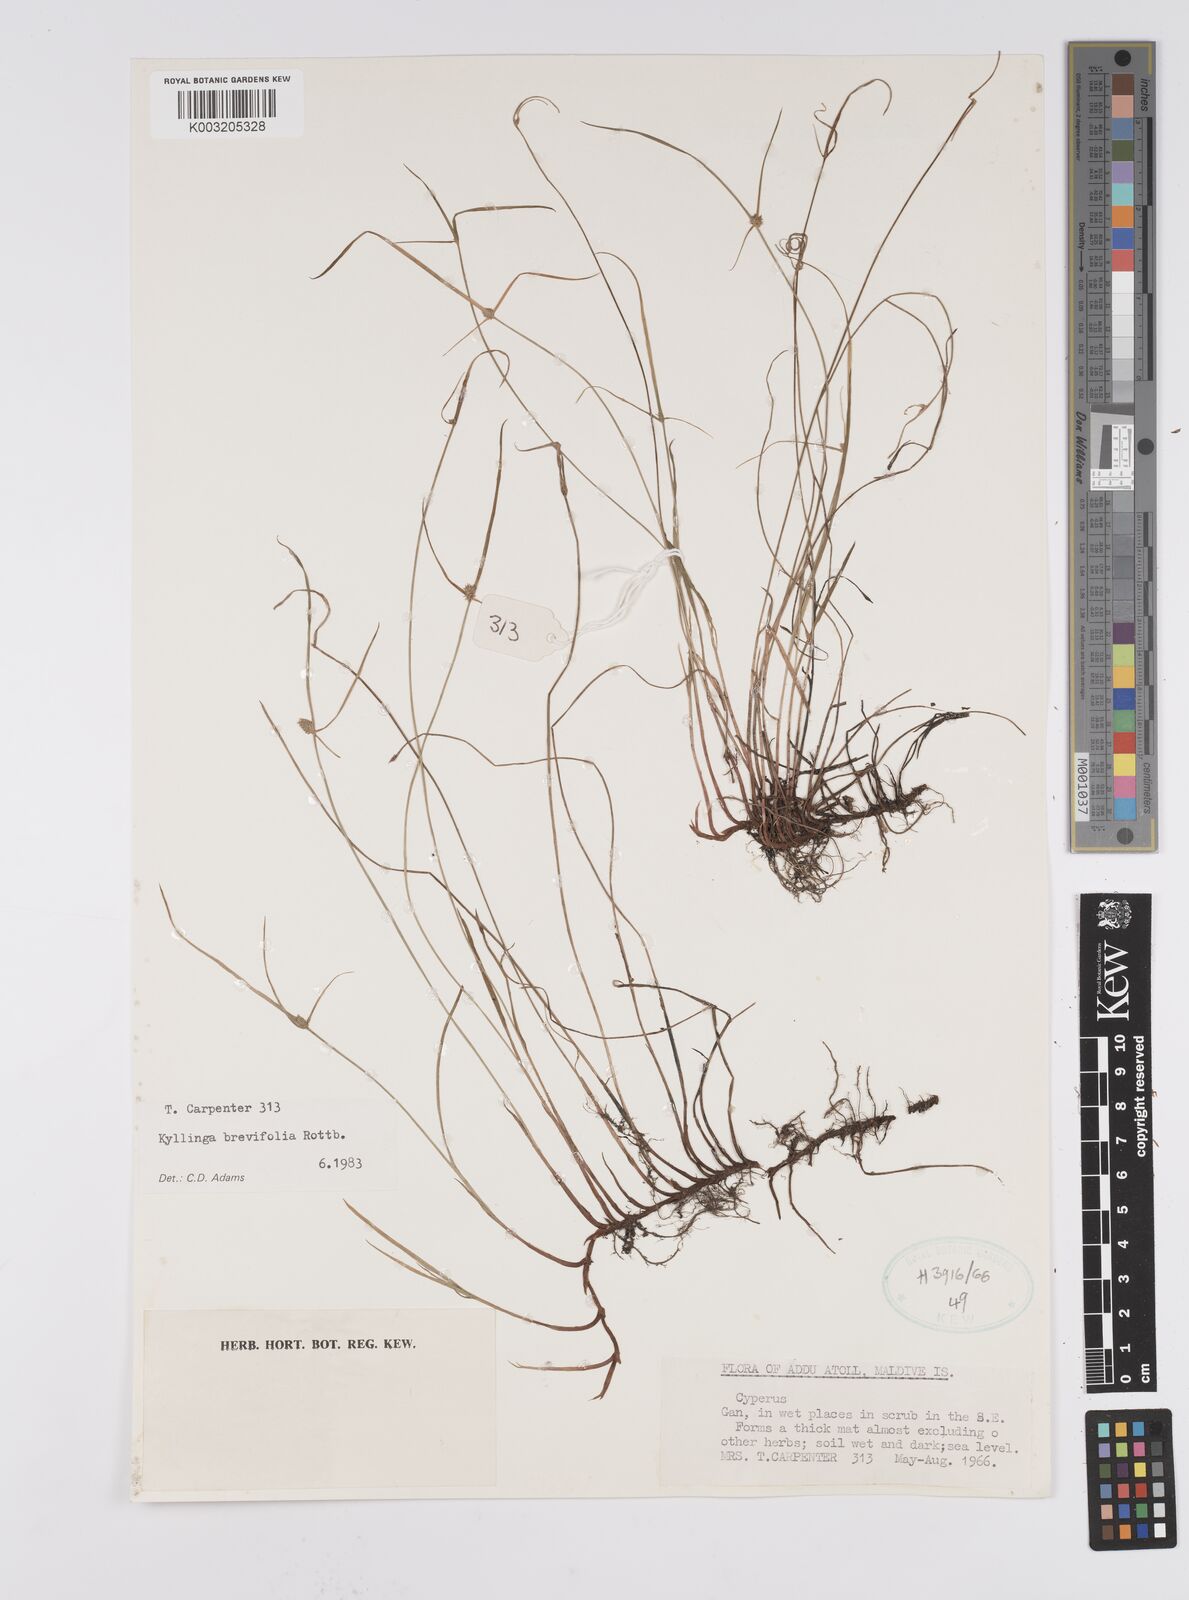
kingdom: Plantae
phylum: Tracheophyta
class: Liliopsida
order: Poales
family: Cyperaceae
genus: Cyperus
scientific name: Cyperus brevifolius
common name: Globe kyllinga
